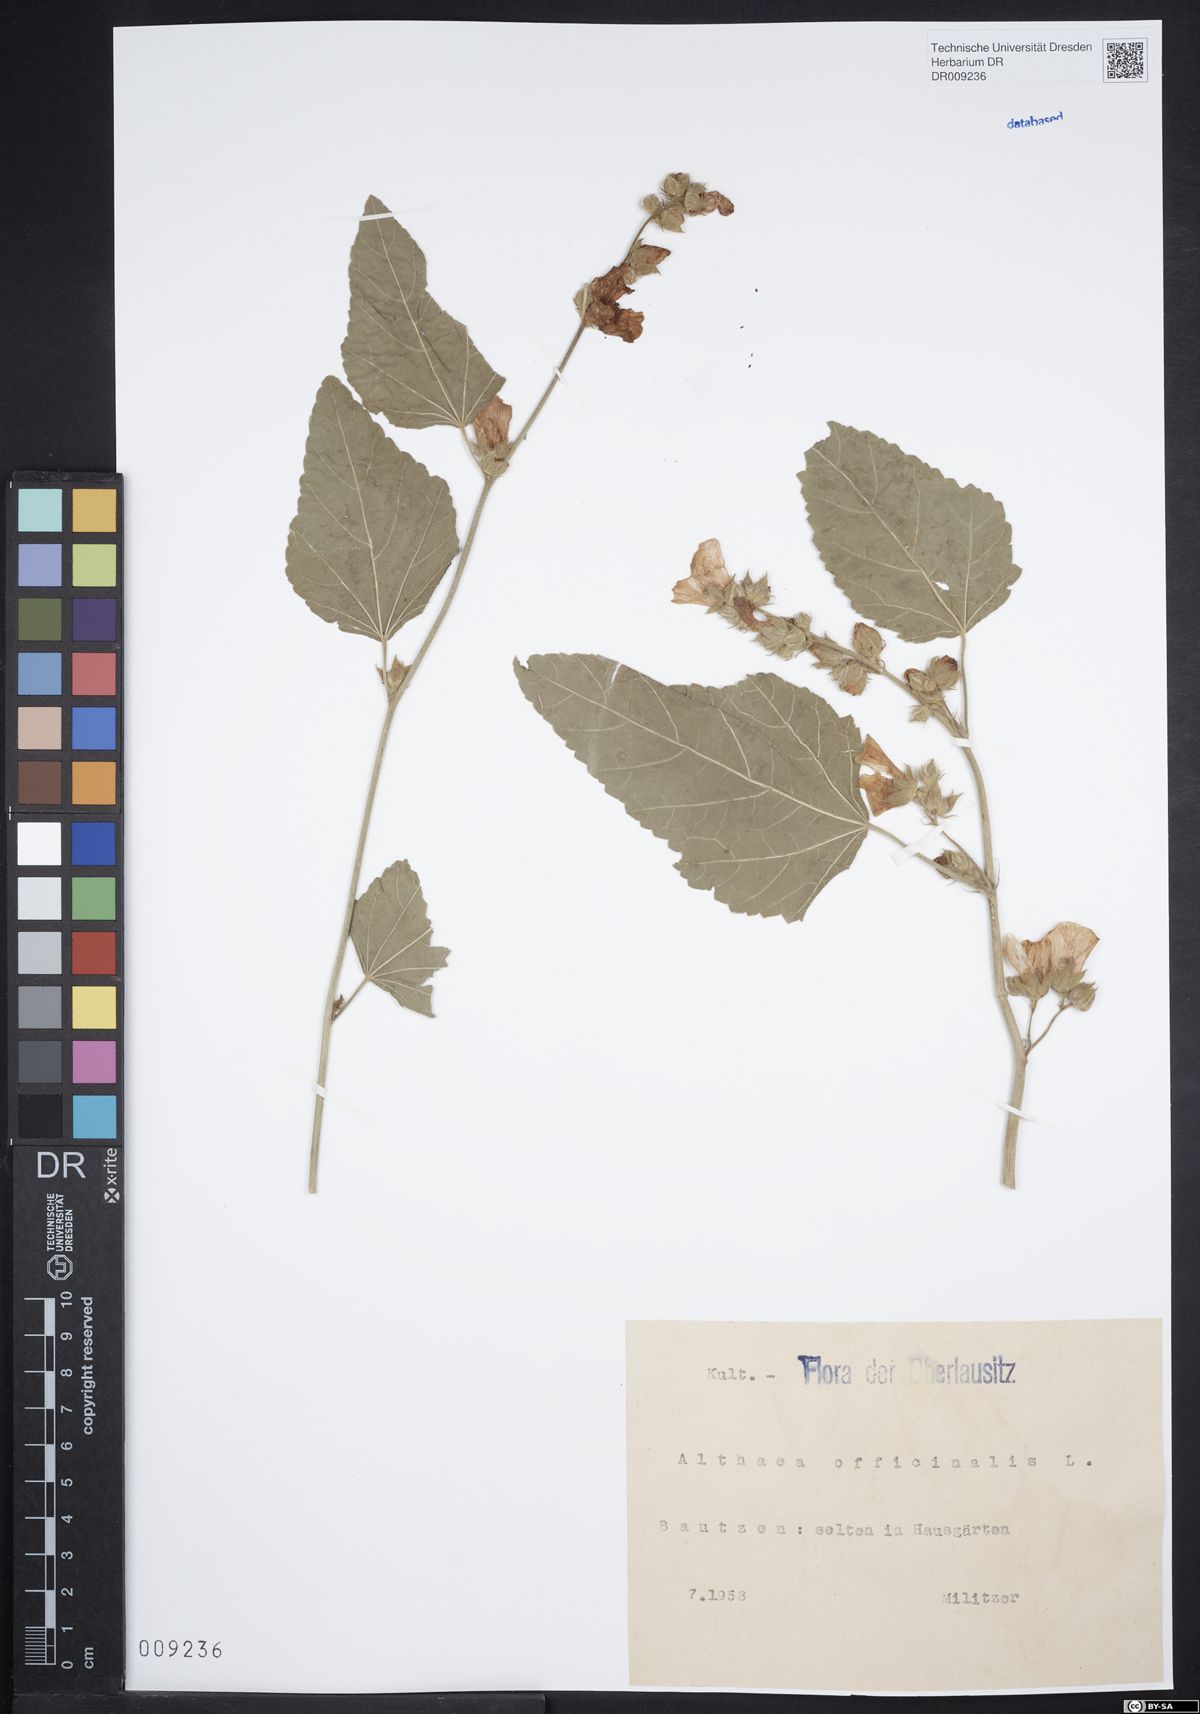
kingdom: Plantae
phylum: Tracheophyta
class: Magnoliopsida
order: Malvales
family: Malvaceae
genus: Althaea
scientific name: Althaea officinalis
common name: Marsh-mallow
